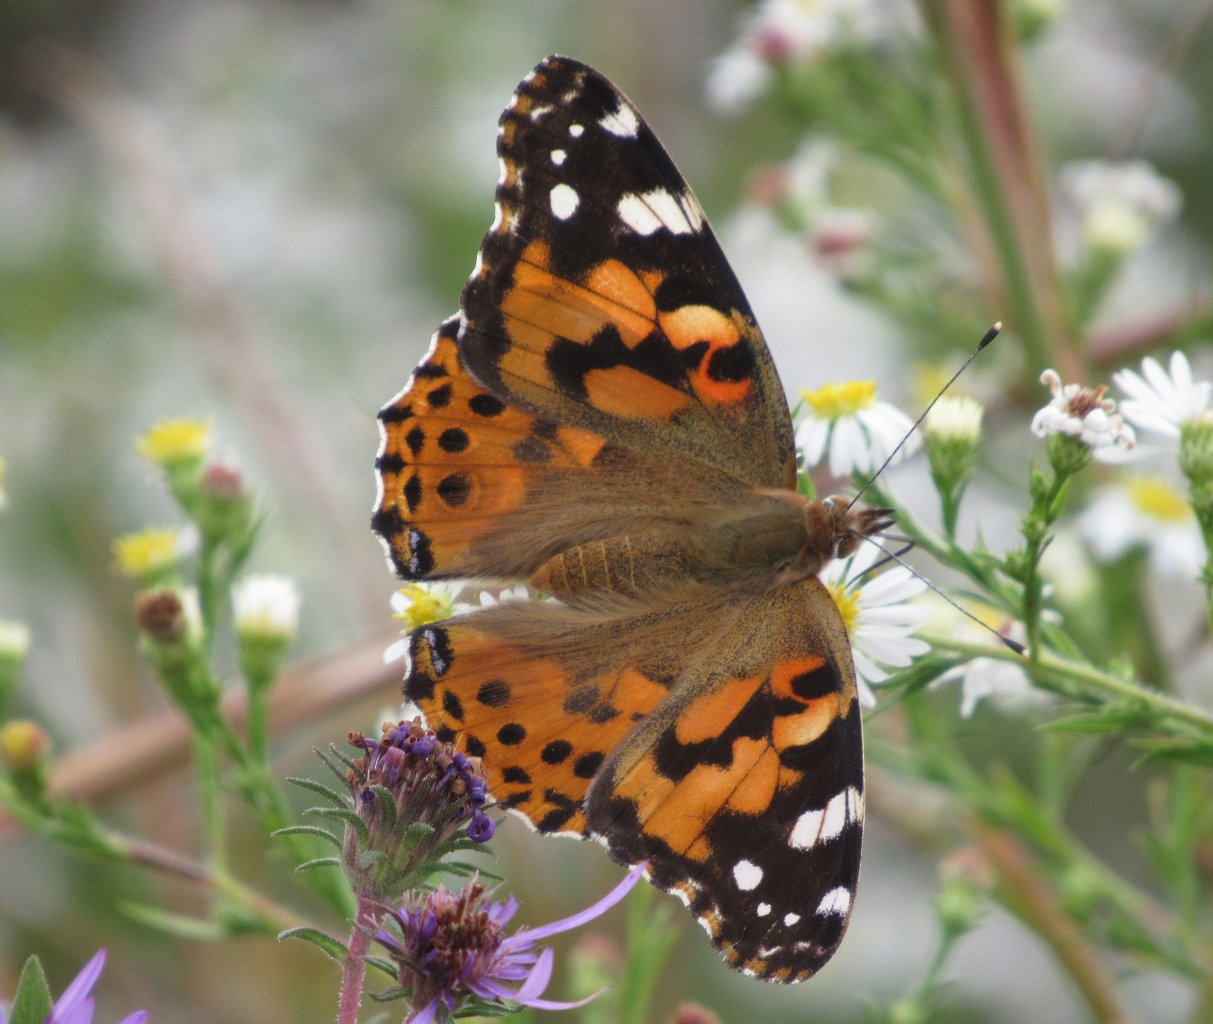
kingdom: Animalia
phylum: Arthropoda
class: Insecta
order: Lepidoptera
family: Nymphalidae
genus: Vanessa
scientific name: Vanessa cardui
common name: Painted Lady
